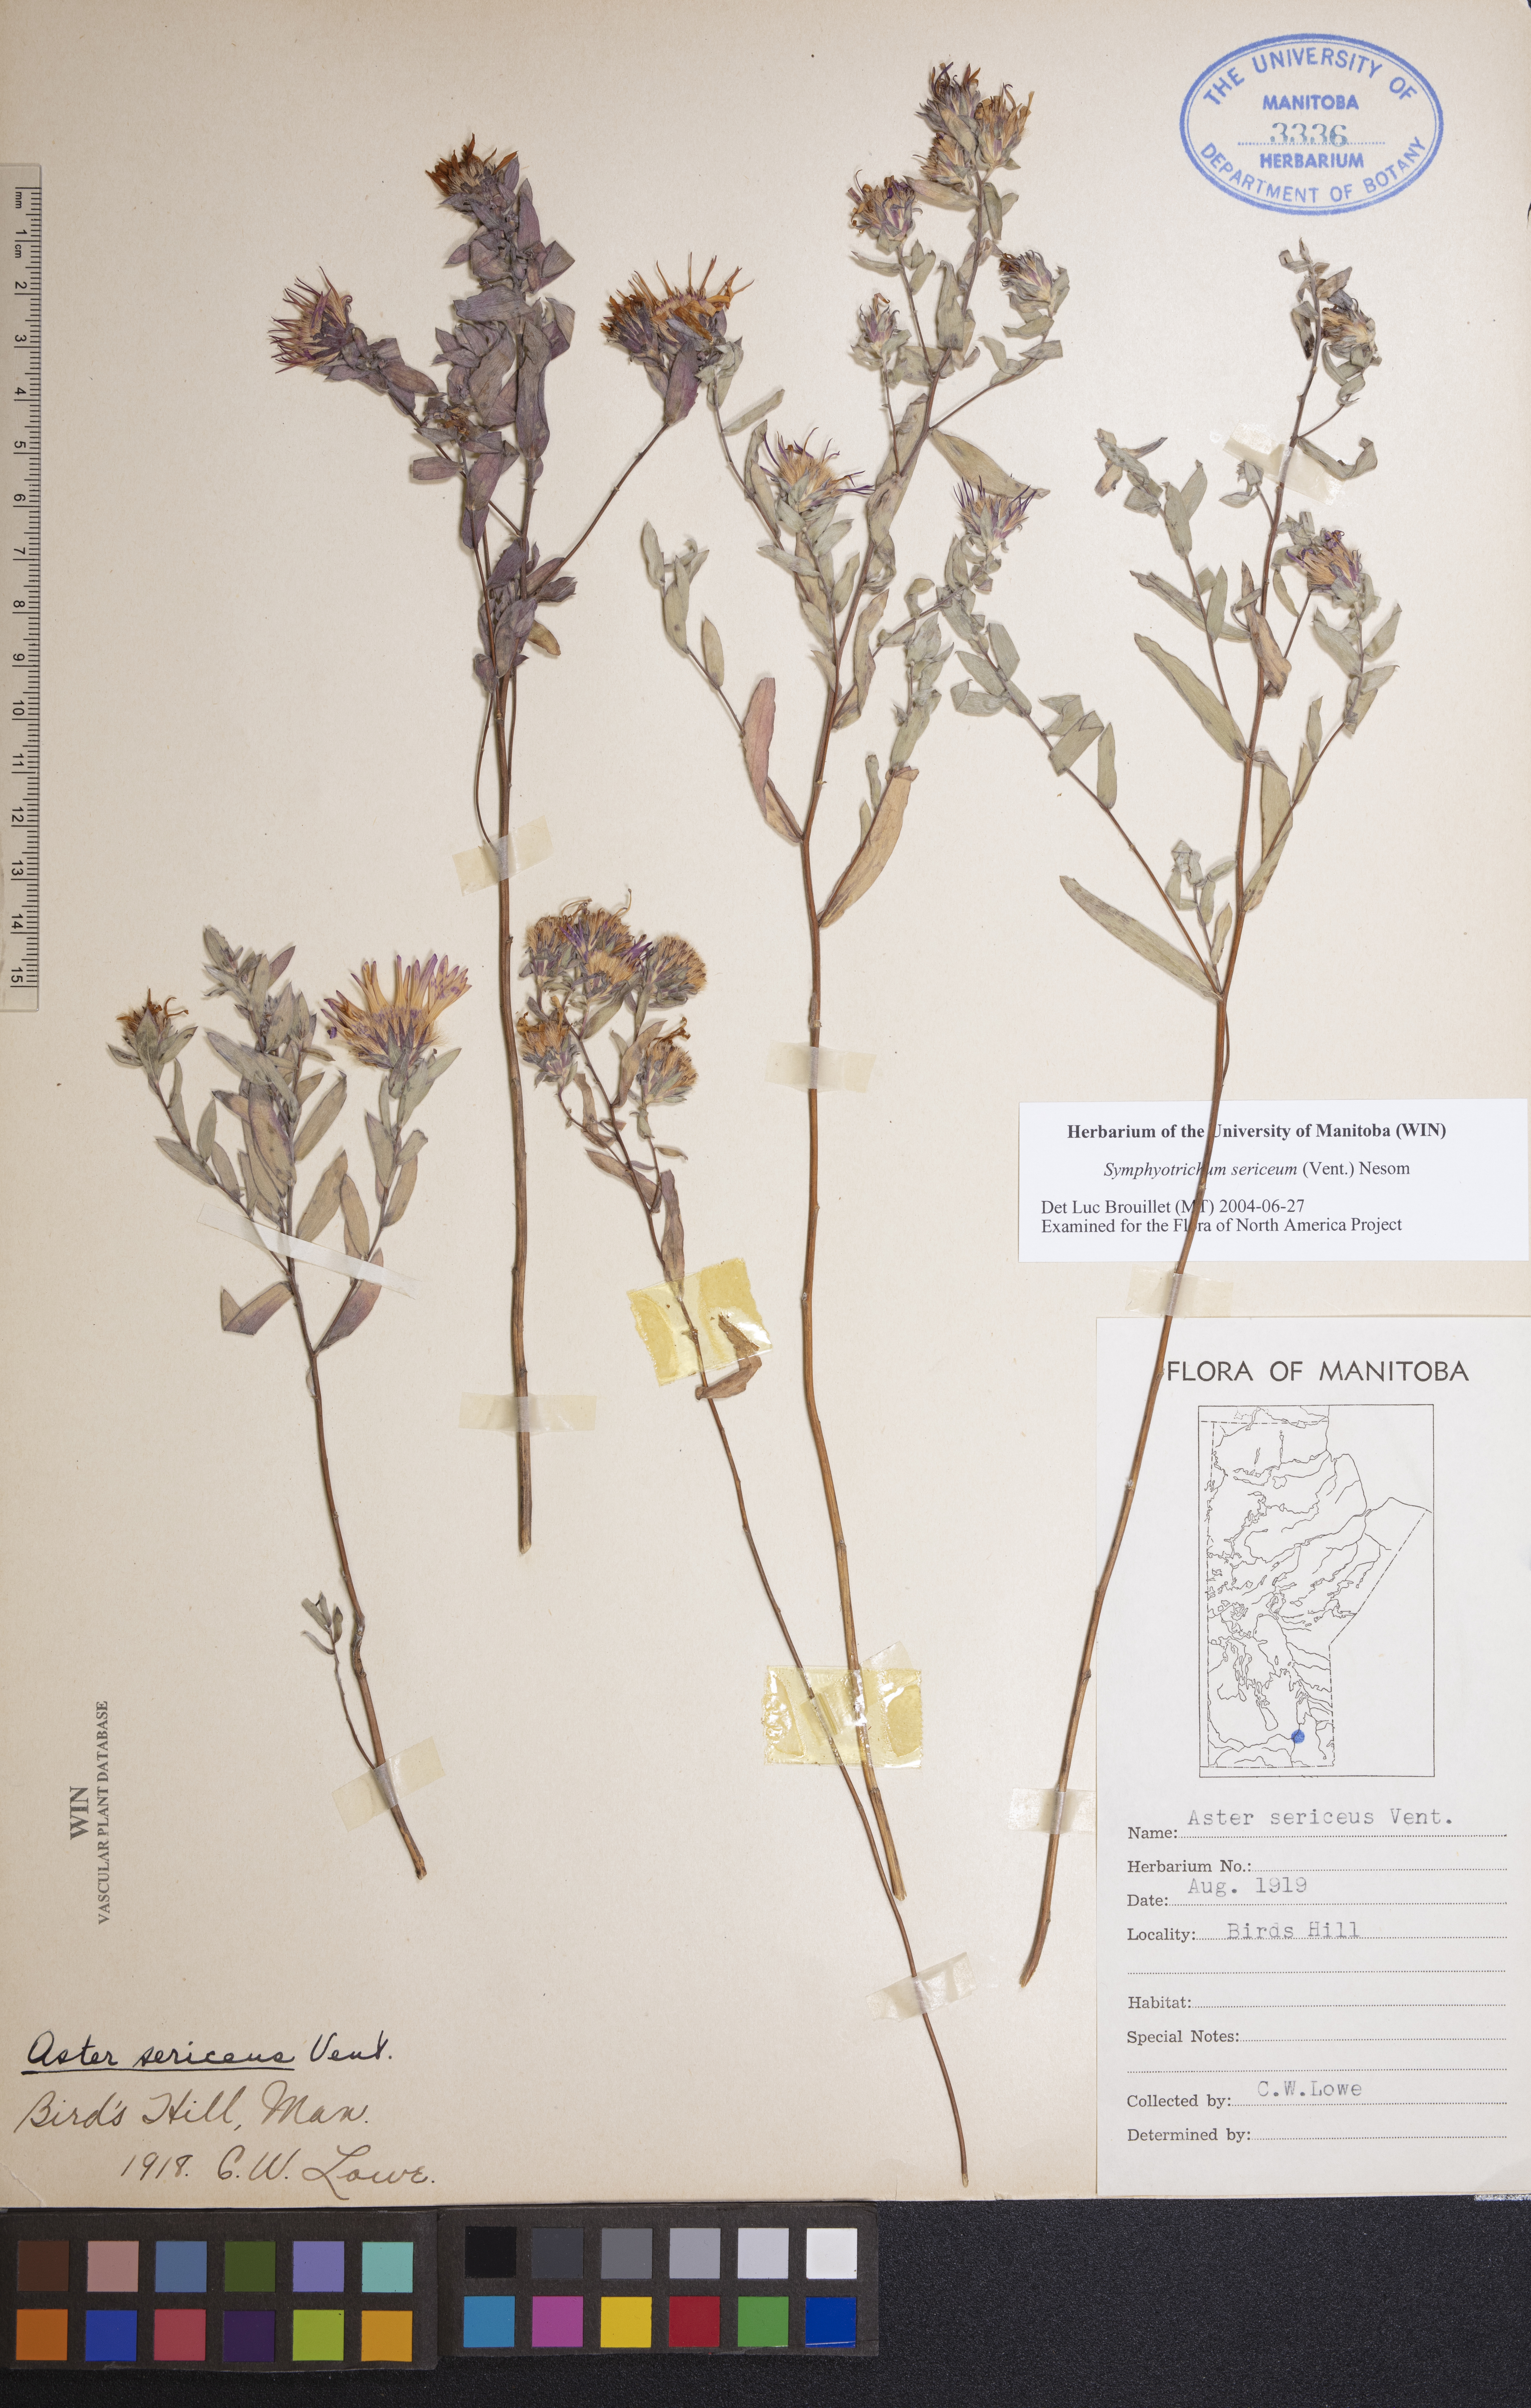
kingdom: Plantae
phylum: Tracheophyta
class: Magnoliopsida
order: Asterales
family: Asteraceae
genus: Symphyotrichum
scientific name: Symphyotrichum sericeum
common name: Silky aster
